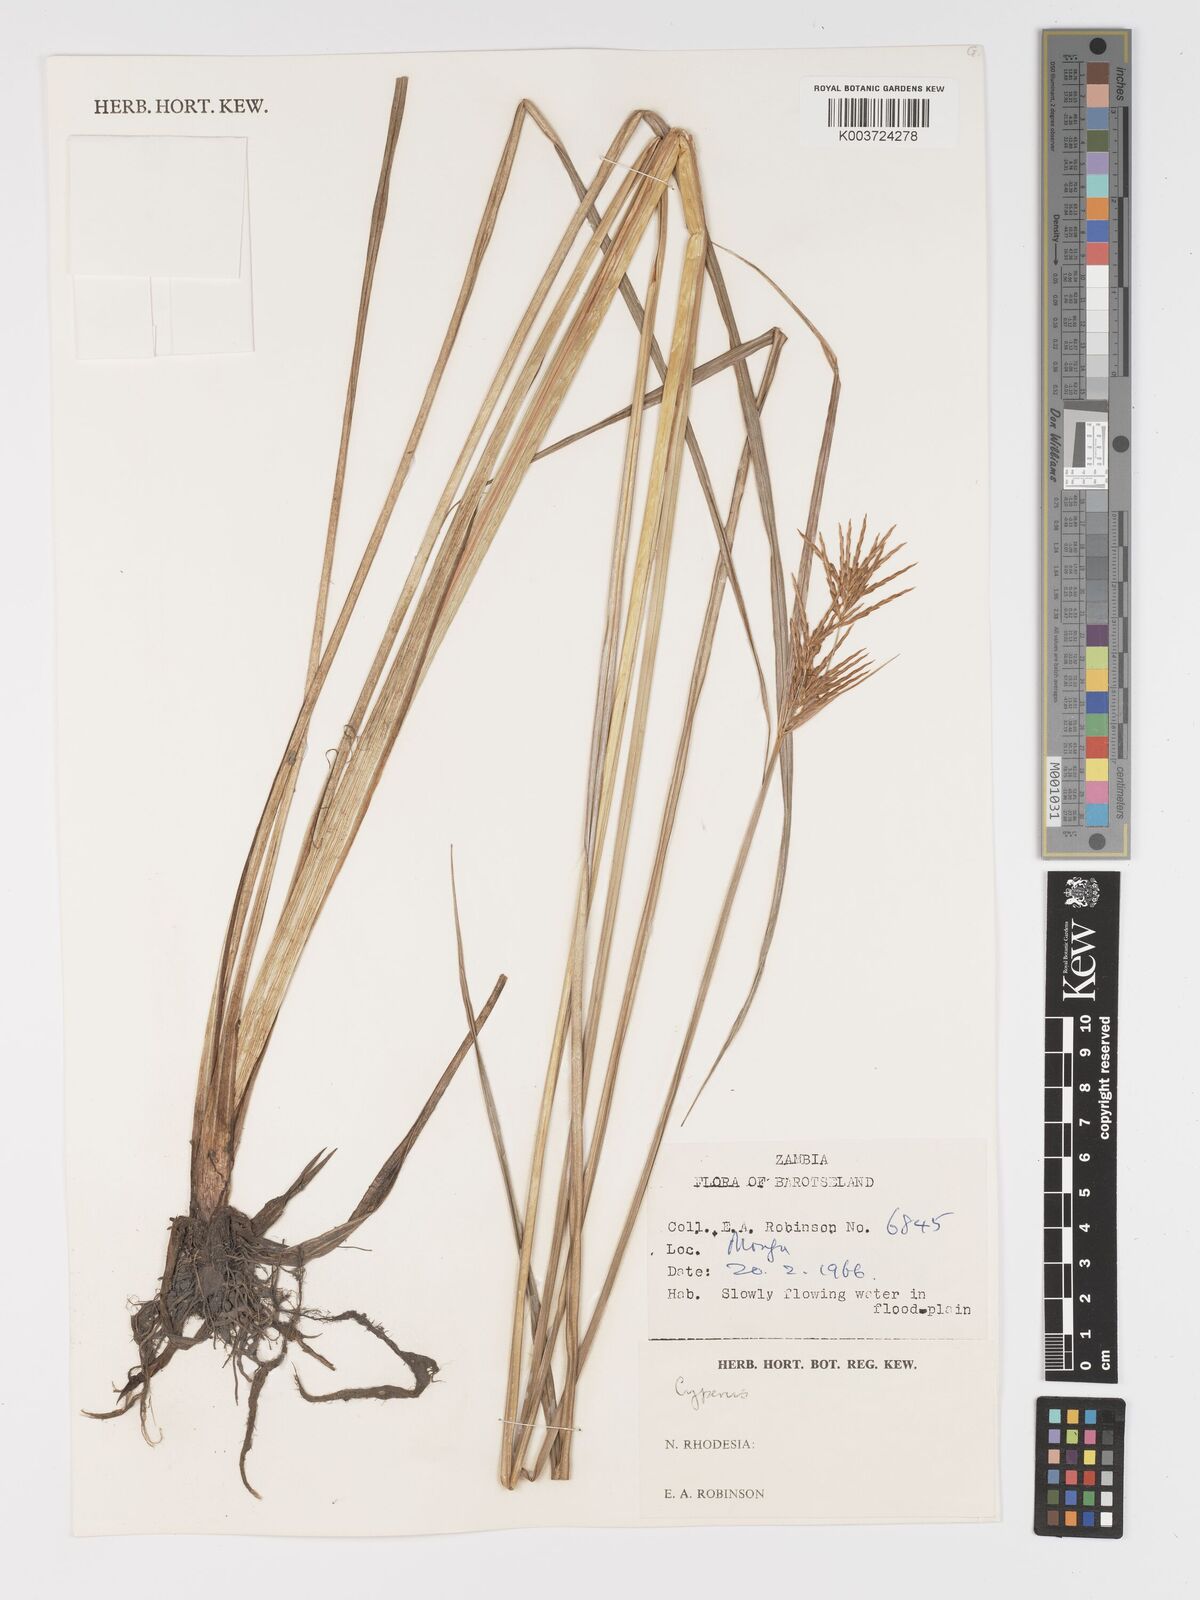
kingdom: Plantae
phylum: Tracheophyta
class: Liliopsida
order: Poales
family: Cyperaceae
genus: Cyperus
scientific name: Cyperus
